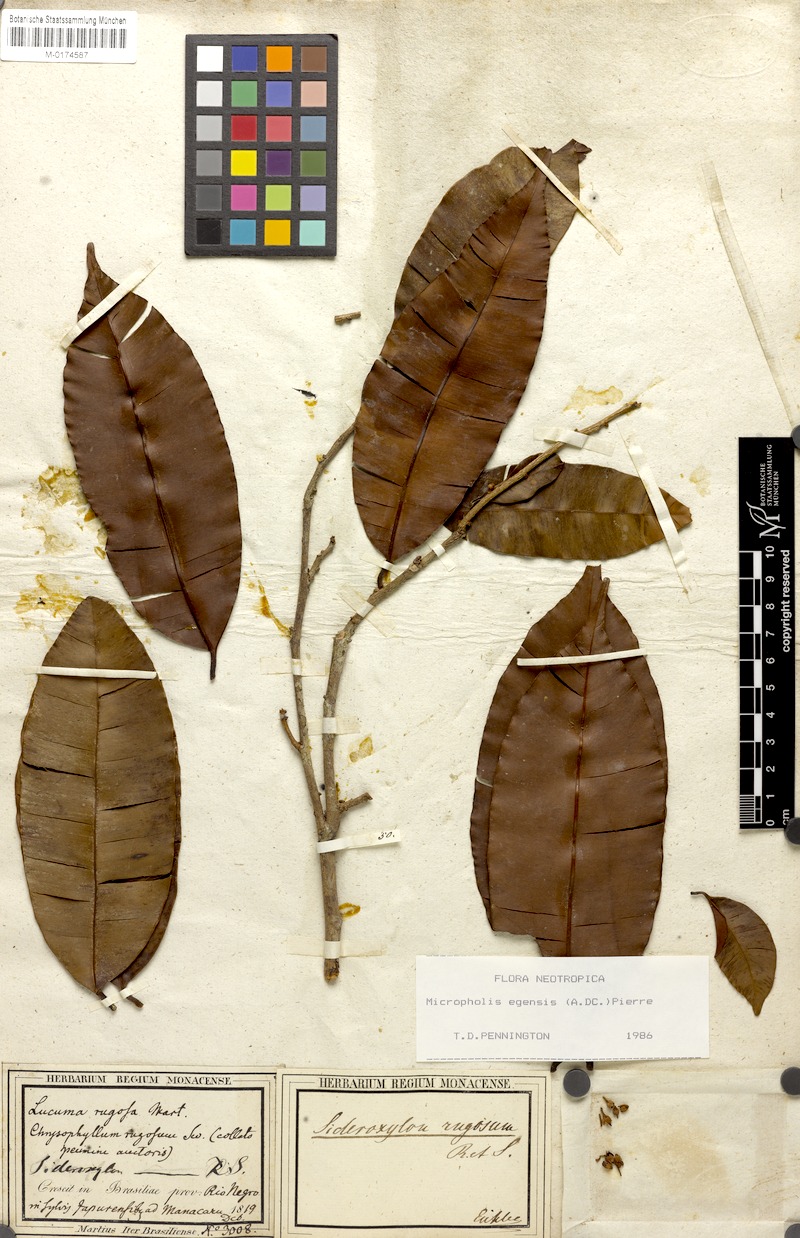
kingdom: Plantae
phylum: Tracheophyta
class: Magnoliopsida
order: Ericales
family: Sapotaceae
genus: Micropholis
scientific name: Micropholis egensis
